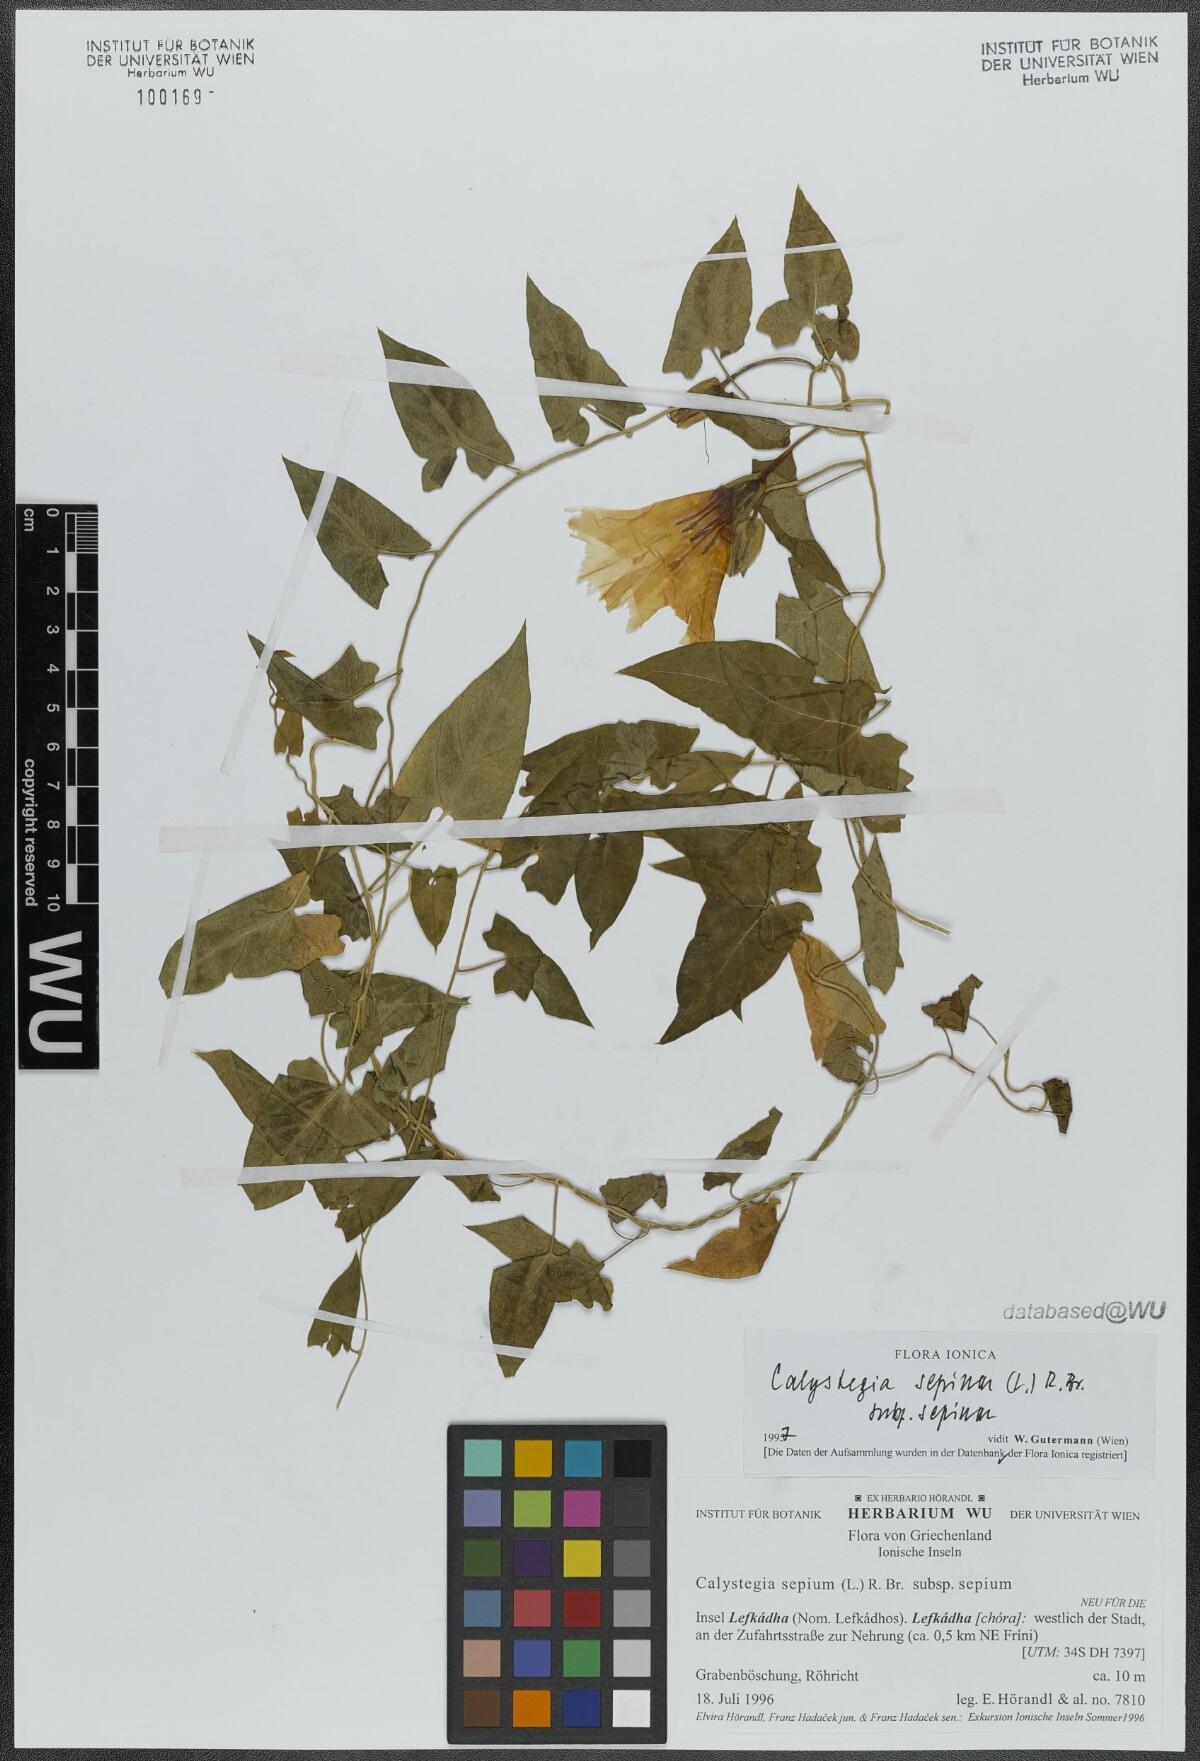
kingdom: Plantae
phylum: Tracheophyta
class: Magnoliopsida
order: Solanales
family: Convolvulaceae
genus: Calystegia
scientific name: Calystegia sepium
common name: Hedge bindweed
